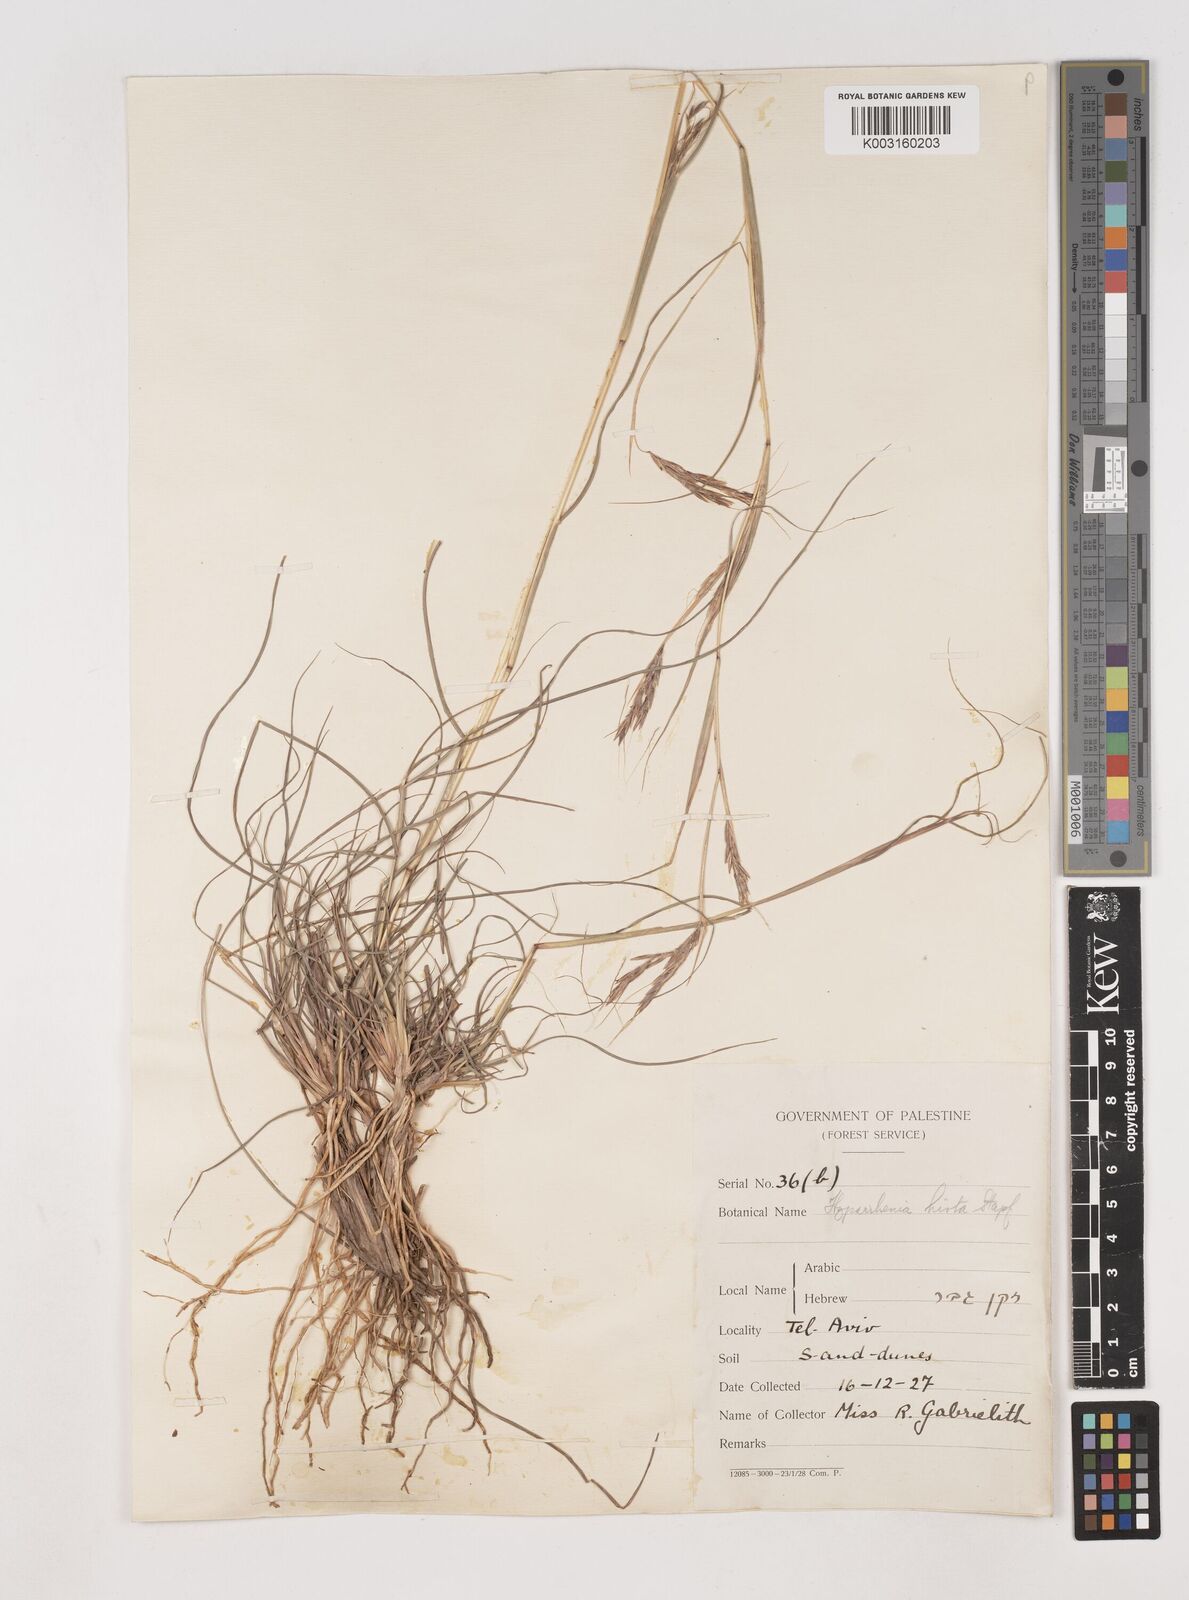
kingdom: Plantae
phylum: Tracheophyta
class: Liliopsida
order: Poales
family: Poaceae
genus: Hyparrhenia
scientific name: Hyparrhenia hirta
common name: Thatching grass
